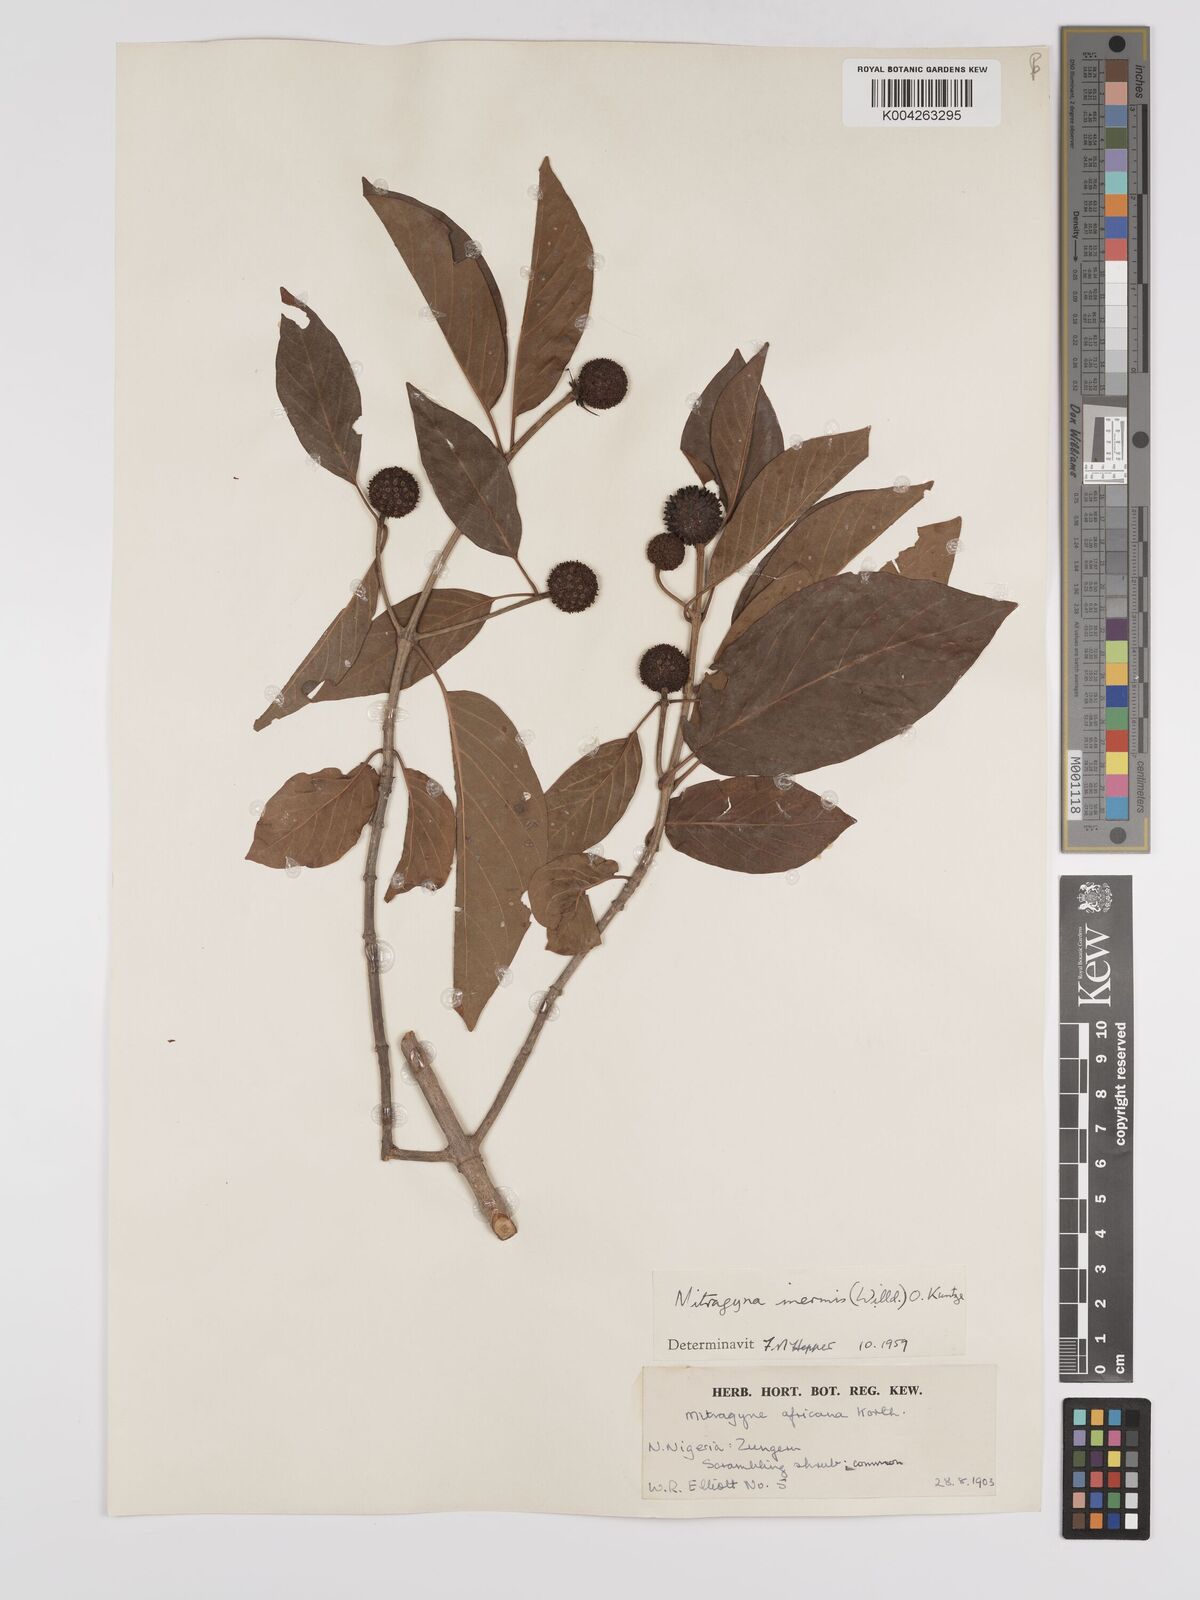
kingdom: Plantae
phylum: Tracheophyta
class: Magnoliopsida
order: Gentianales
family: Rubiaceae
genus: Mitragyna
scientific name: Mitragyna inermis
